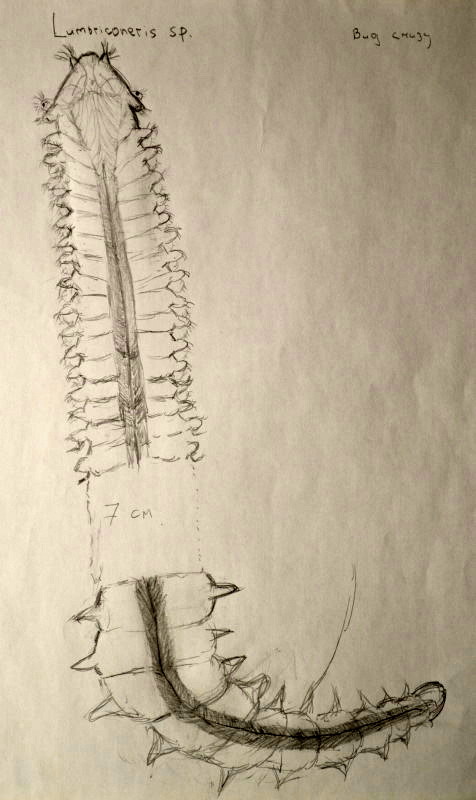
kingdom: Animalia
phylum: Annelida
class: Polychaeta
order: Eunicida
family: Lumbrineridae
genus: Lumbricalus
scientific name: Lumbricalus
